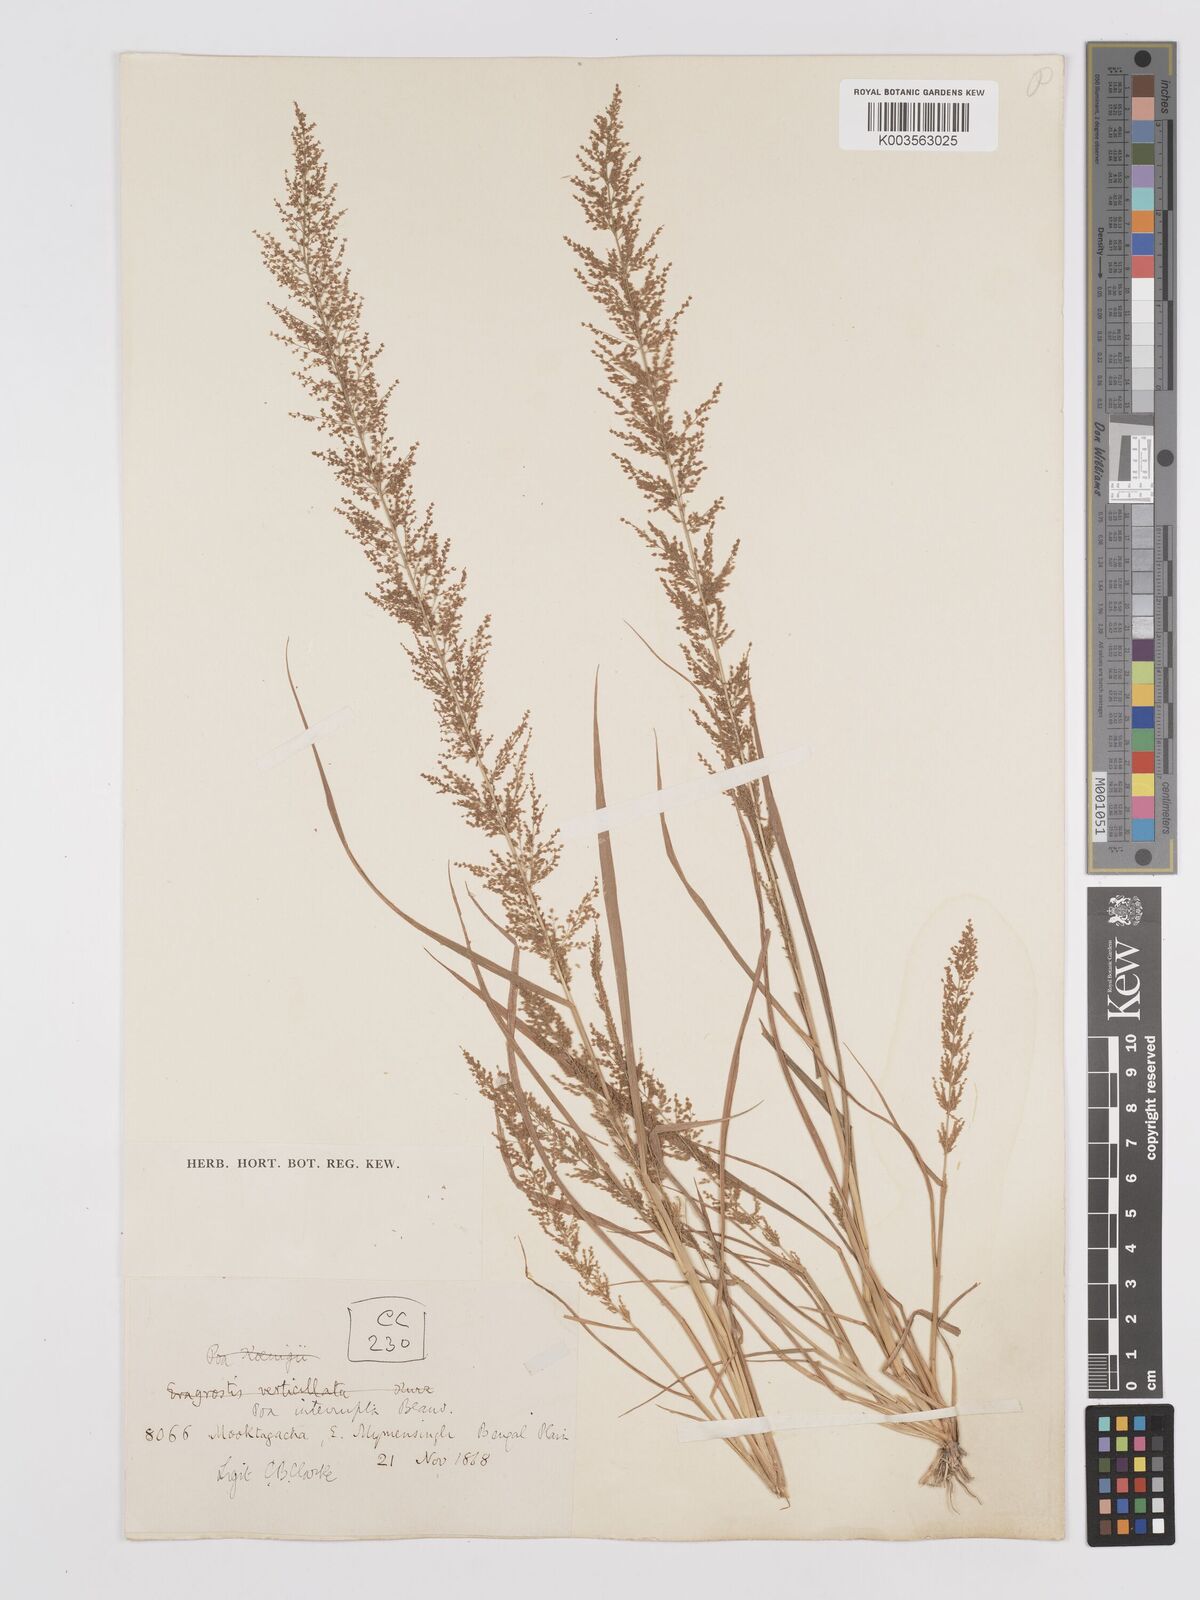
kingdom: Plantae
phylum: Tracheophyta
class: Liliopsida
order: Poales
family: Poaceae
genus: Eragrostis
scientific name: Eragrostis japonica
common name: Pond lovegrass
